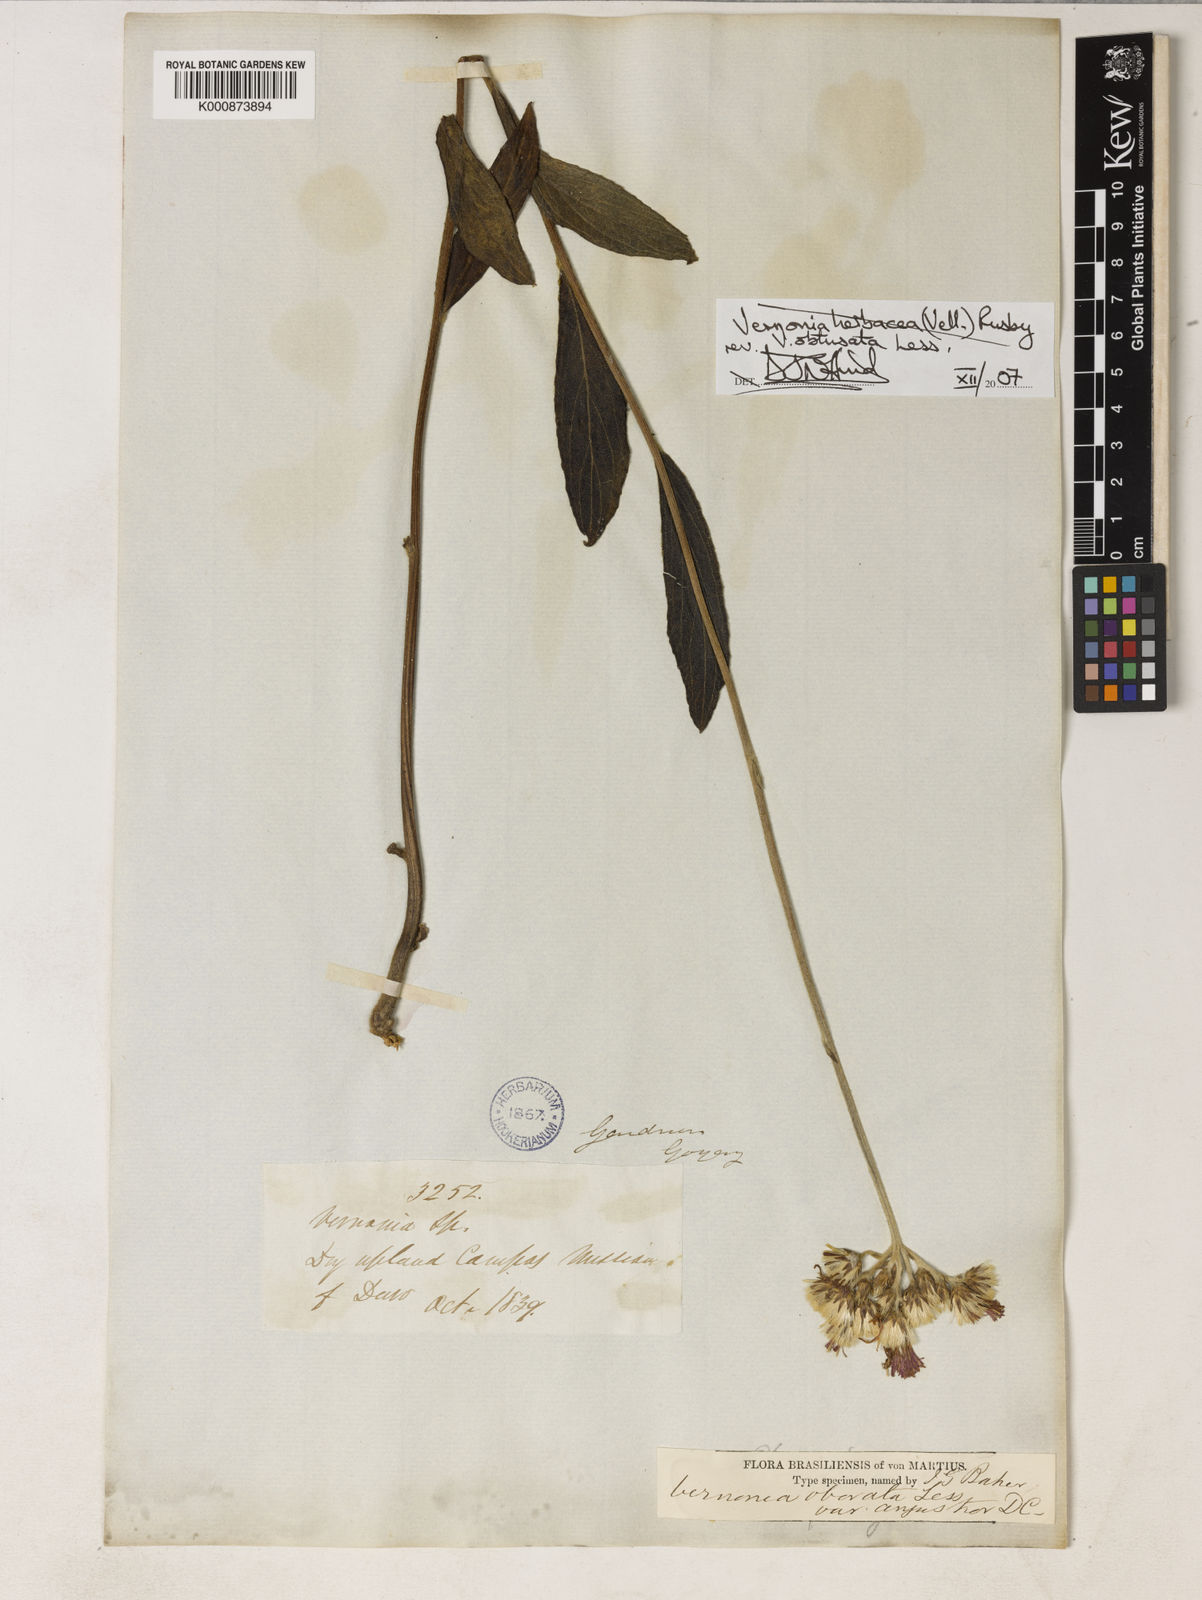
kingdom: Plantae
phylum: Tracheophyta
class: Magnoliopsida
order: Asterales
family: Asteraceae
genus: Chrysolaena
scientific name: Chrysolaena obovata
